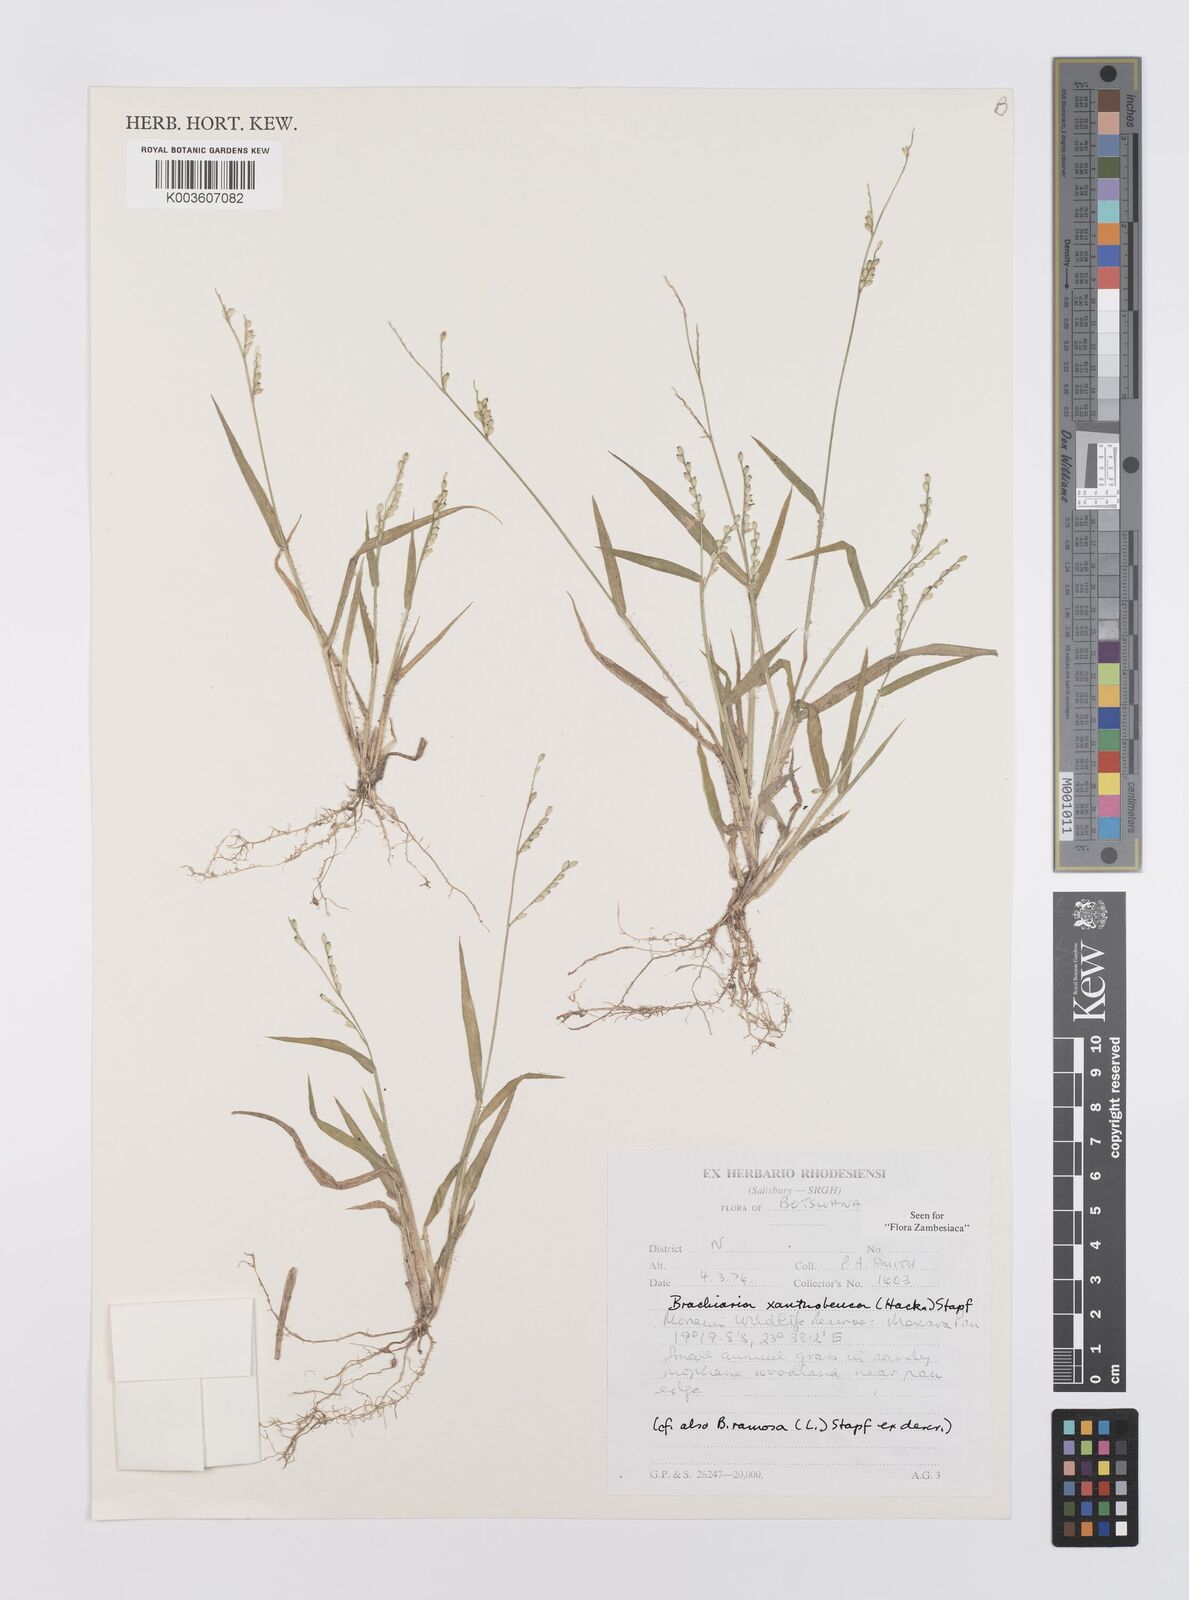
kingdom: Plantae
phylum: Tracheophyta
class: Liliopsida
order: Poales
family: Poaceae
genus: Urochloa
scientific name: Urochloa xantholeuca
